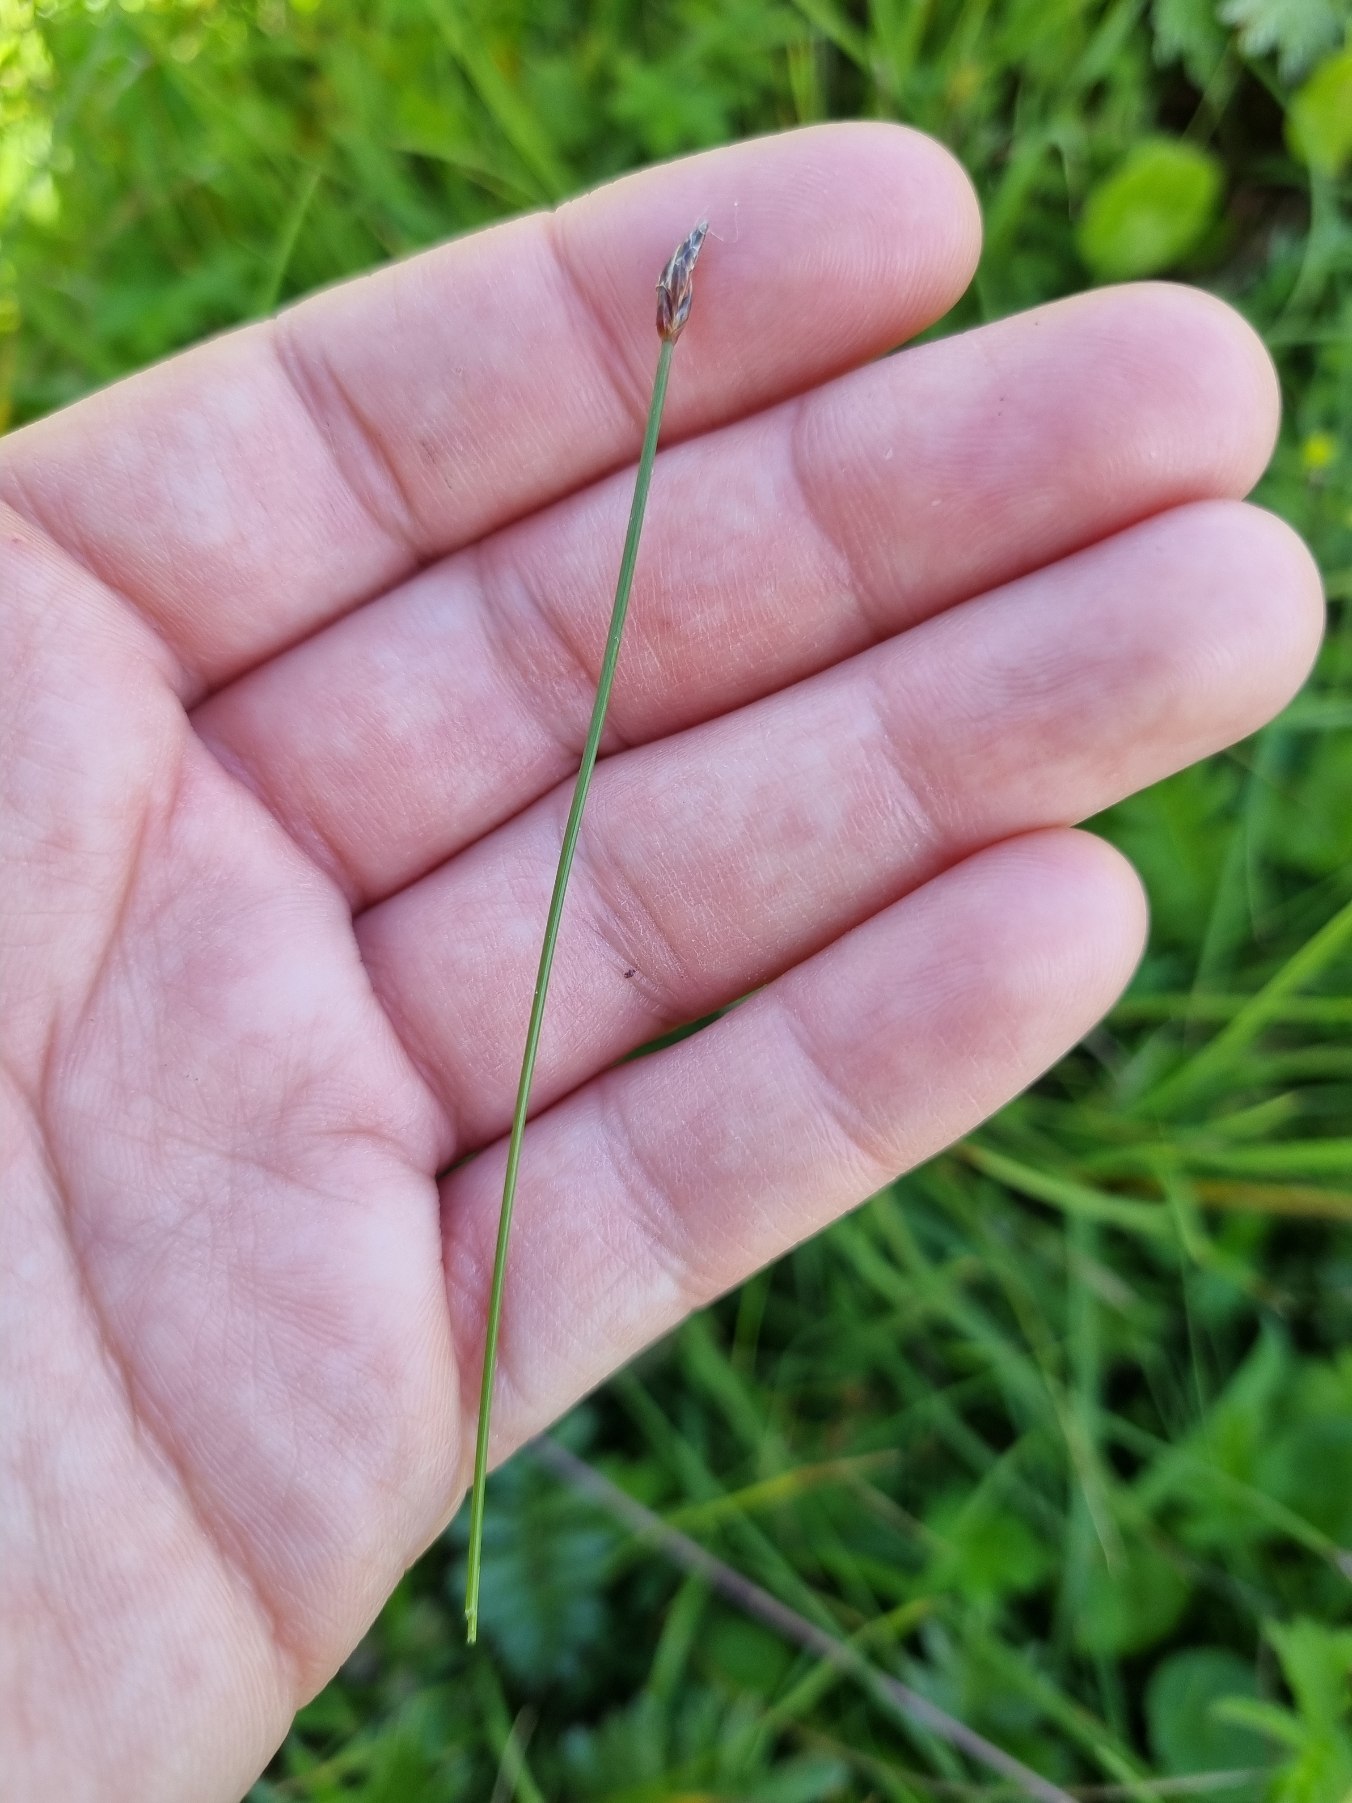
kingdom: Plantae
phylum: Tracheophyta
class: Liliopsida
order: Poales
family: Cyperaceae
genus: Eleocharis
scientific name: Eleocharis quinqueflora
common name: Fåblomstret kogleaks
